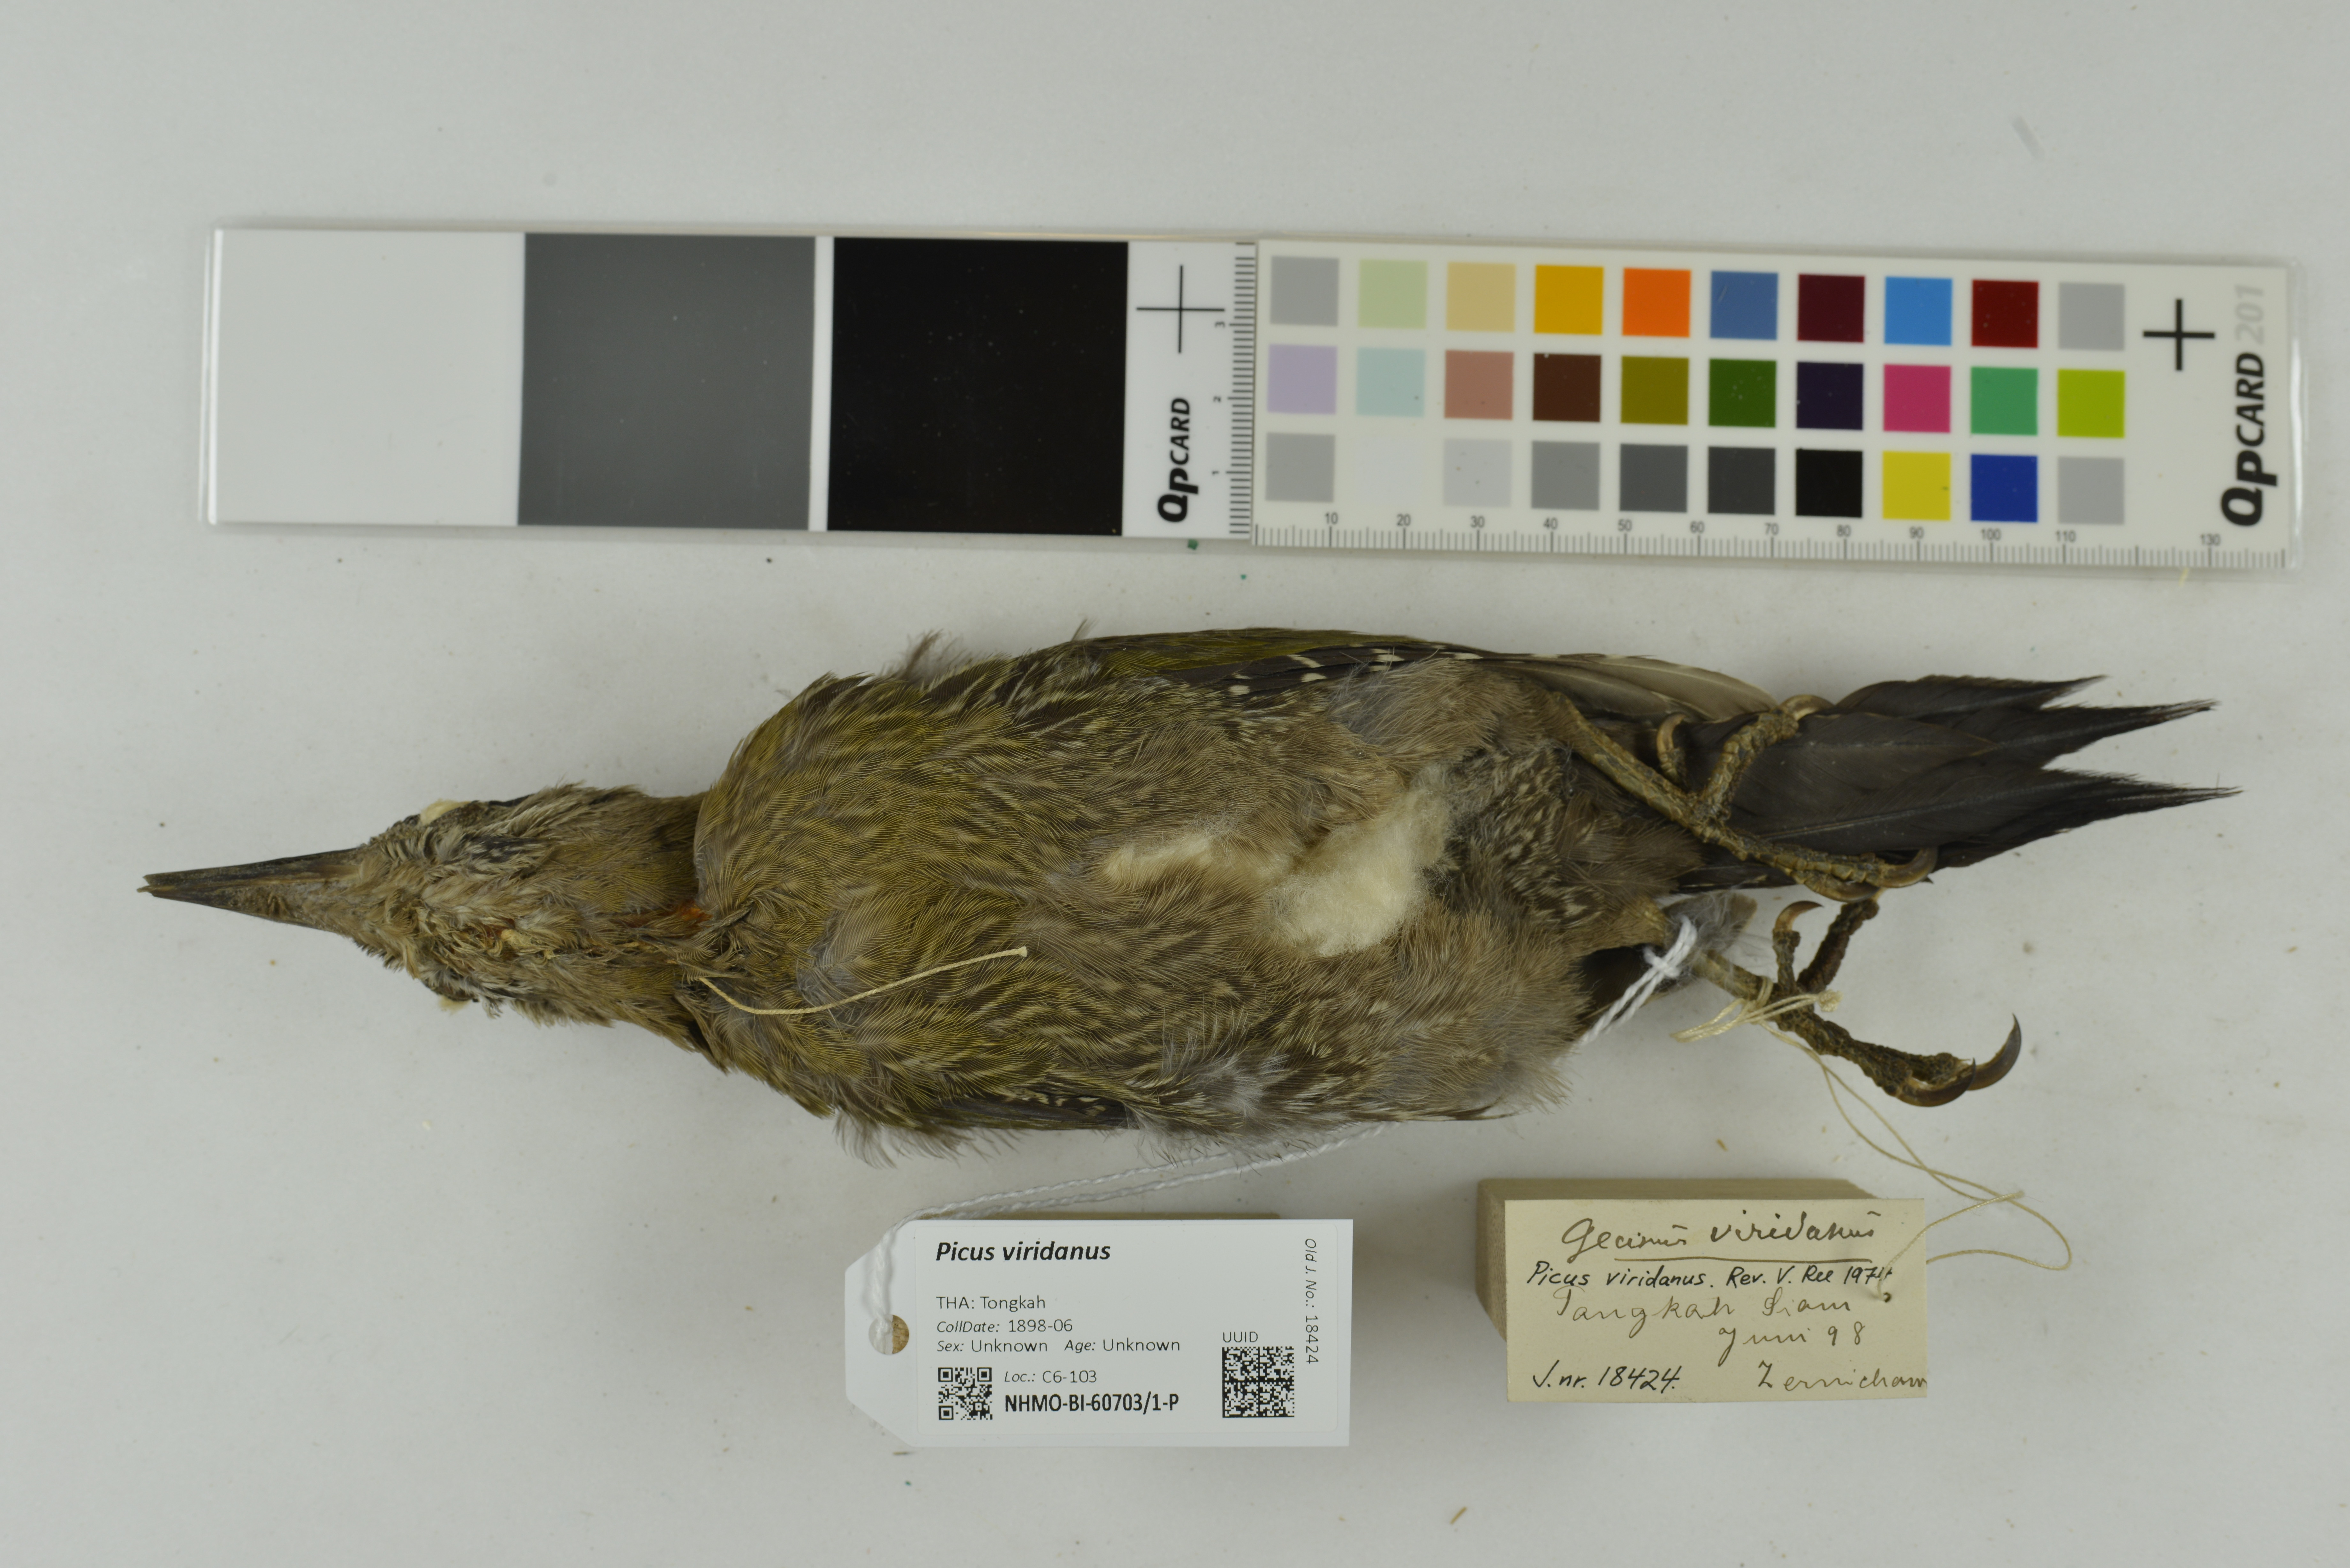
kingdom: Animalia
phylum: Chordata
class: Aves
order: Piciformes
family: Picidae
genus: Picus
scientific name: Picus viridanus
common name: Streak-breasted woodpecker
